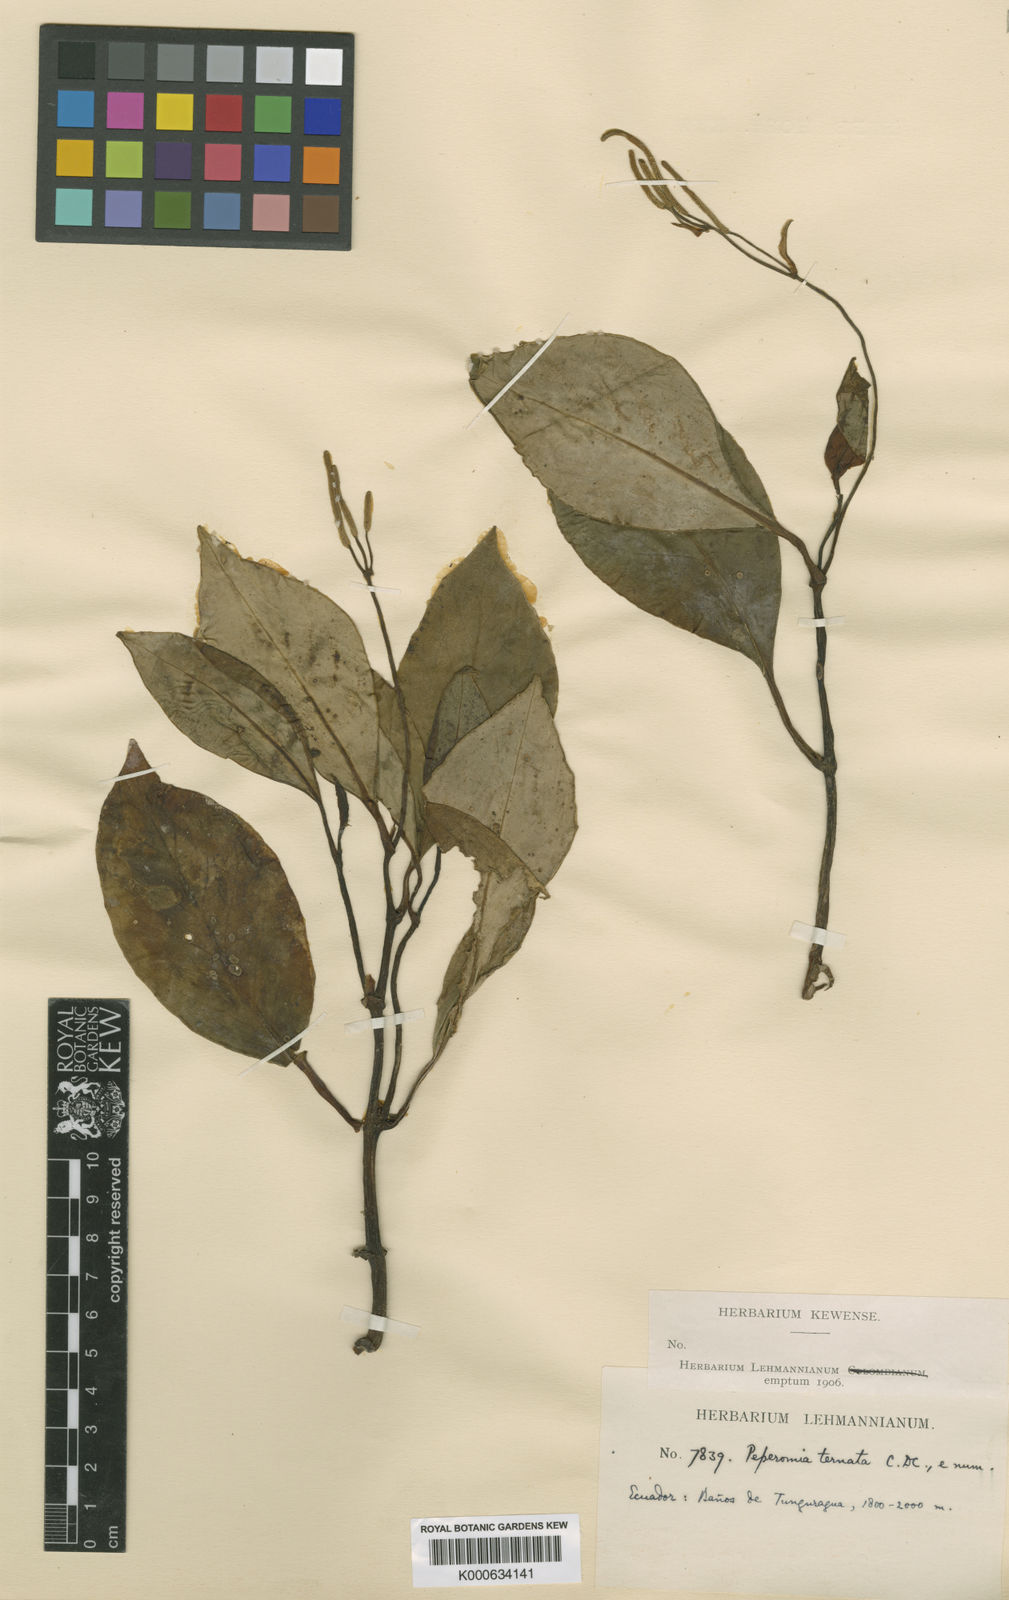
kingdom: Plantae
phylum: Tracheophyta
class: Magnoliopsida
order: Piperales
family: Piperaceae
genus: Peperomia
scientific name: Peperomia ternata
